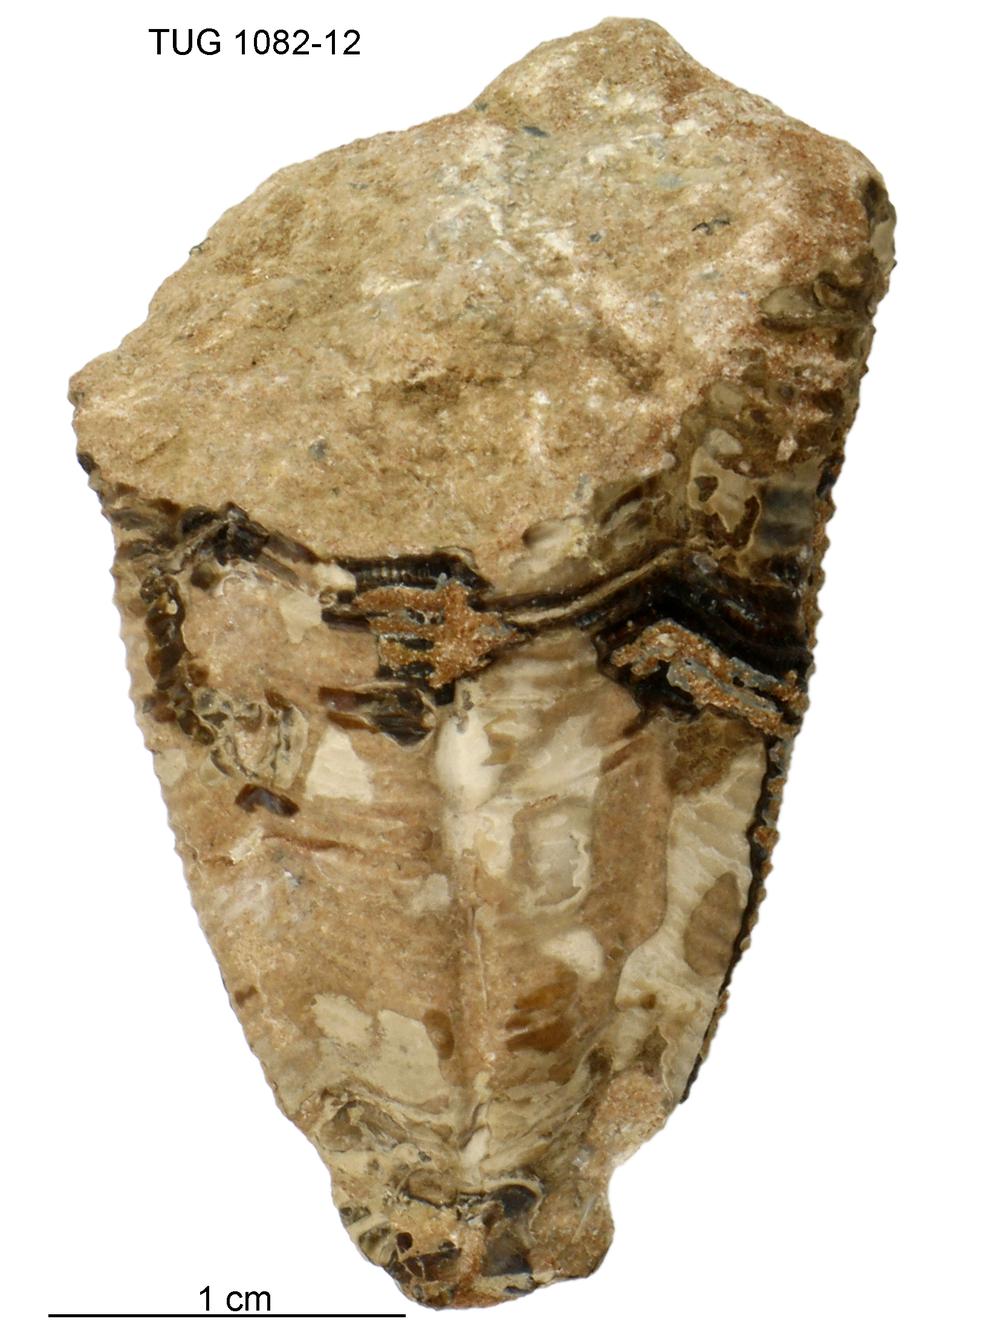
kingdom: Animalia
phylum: Cnidaria
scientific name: Cnidaria
